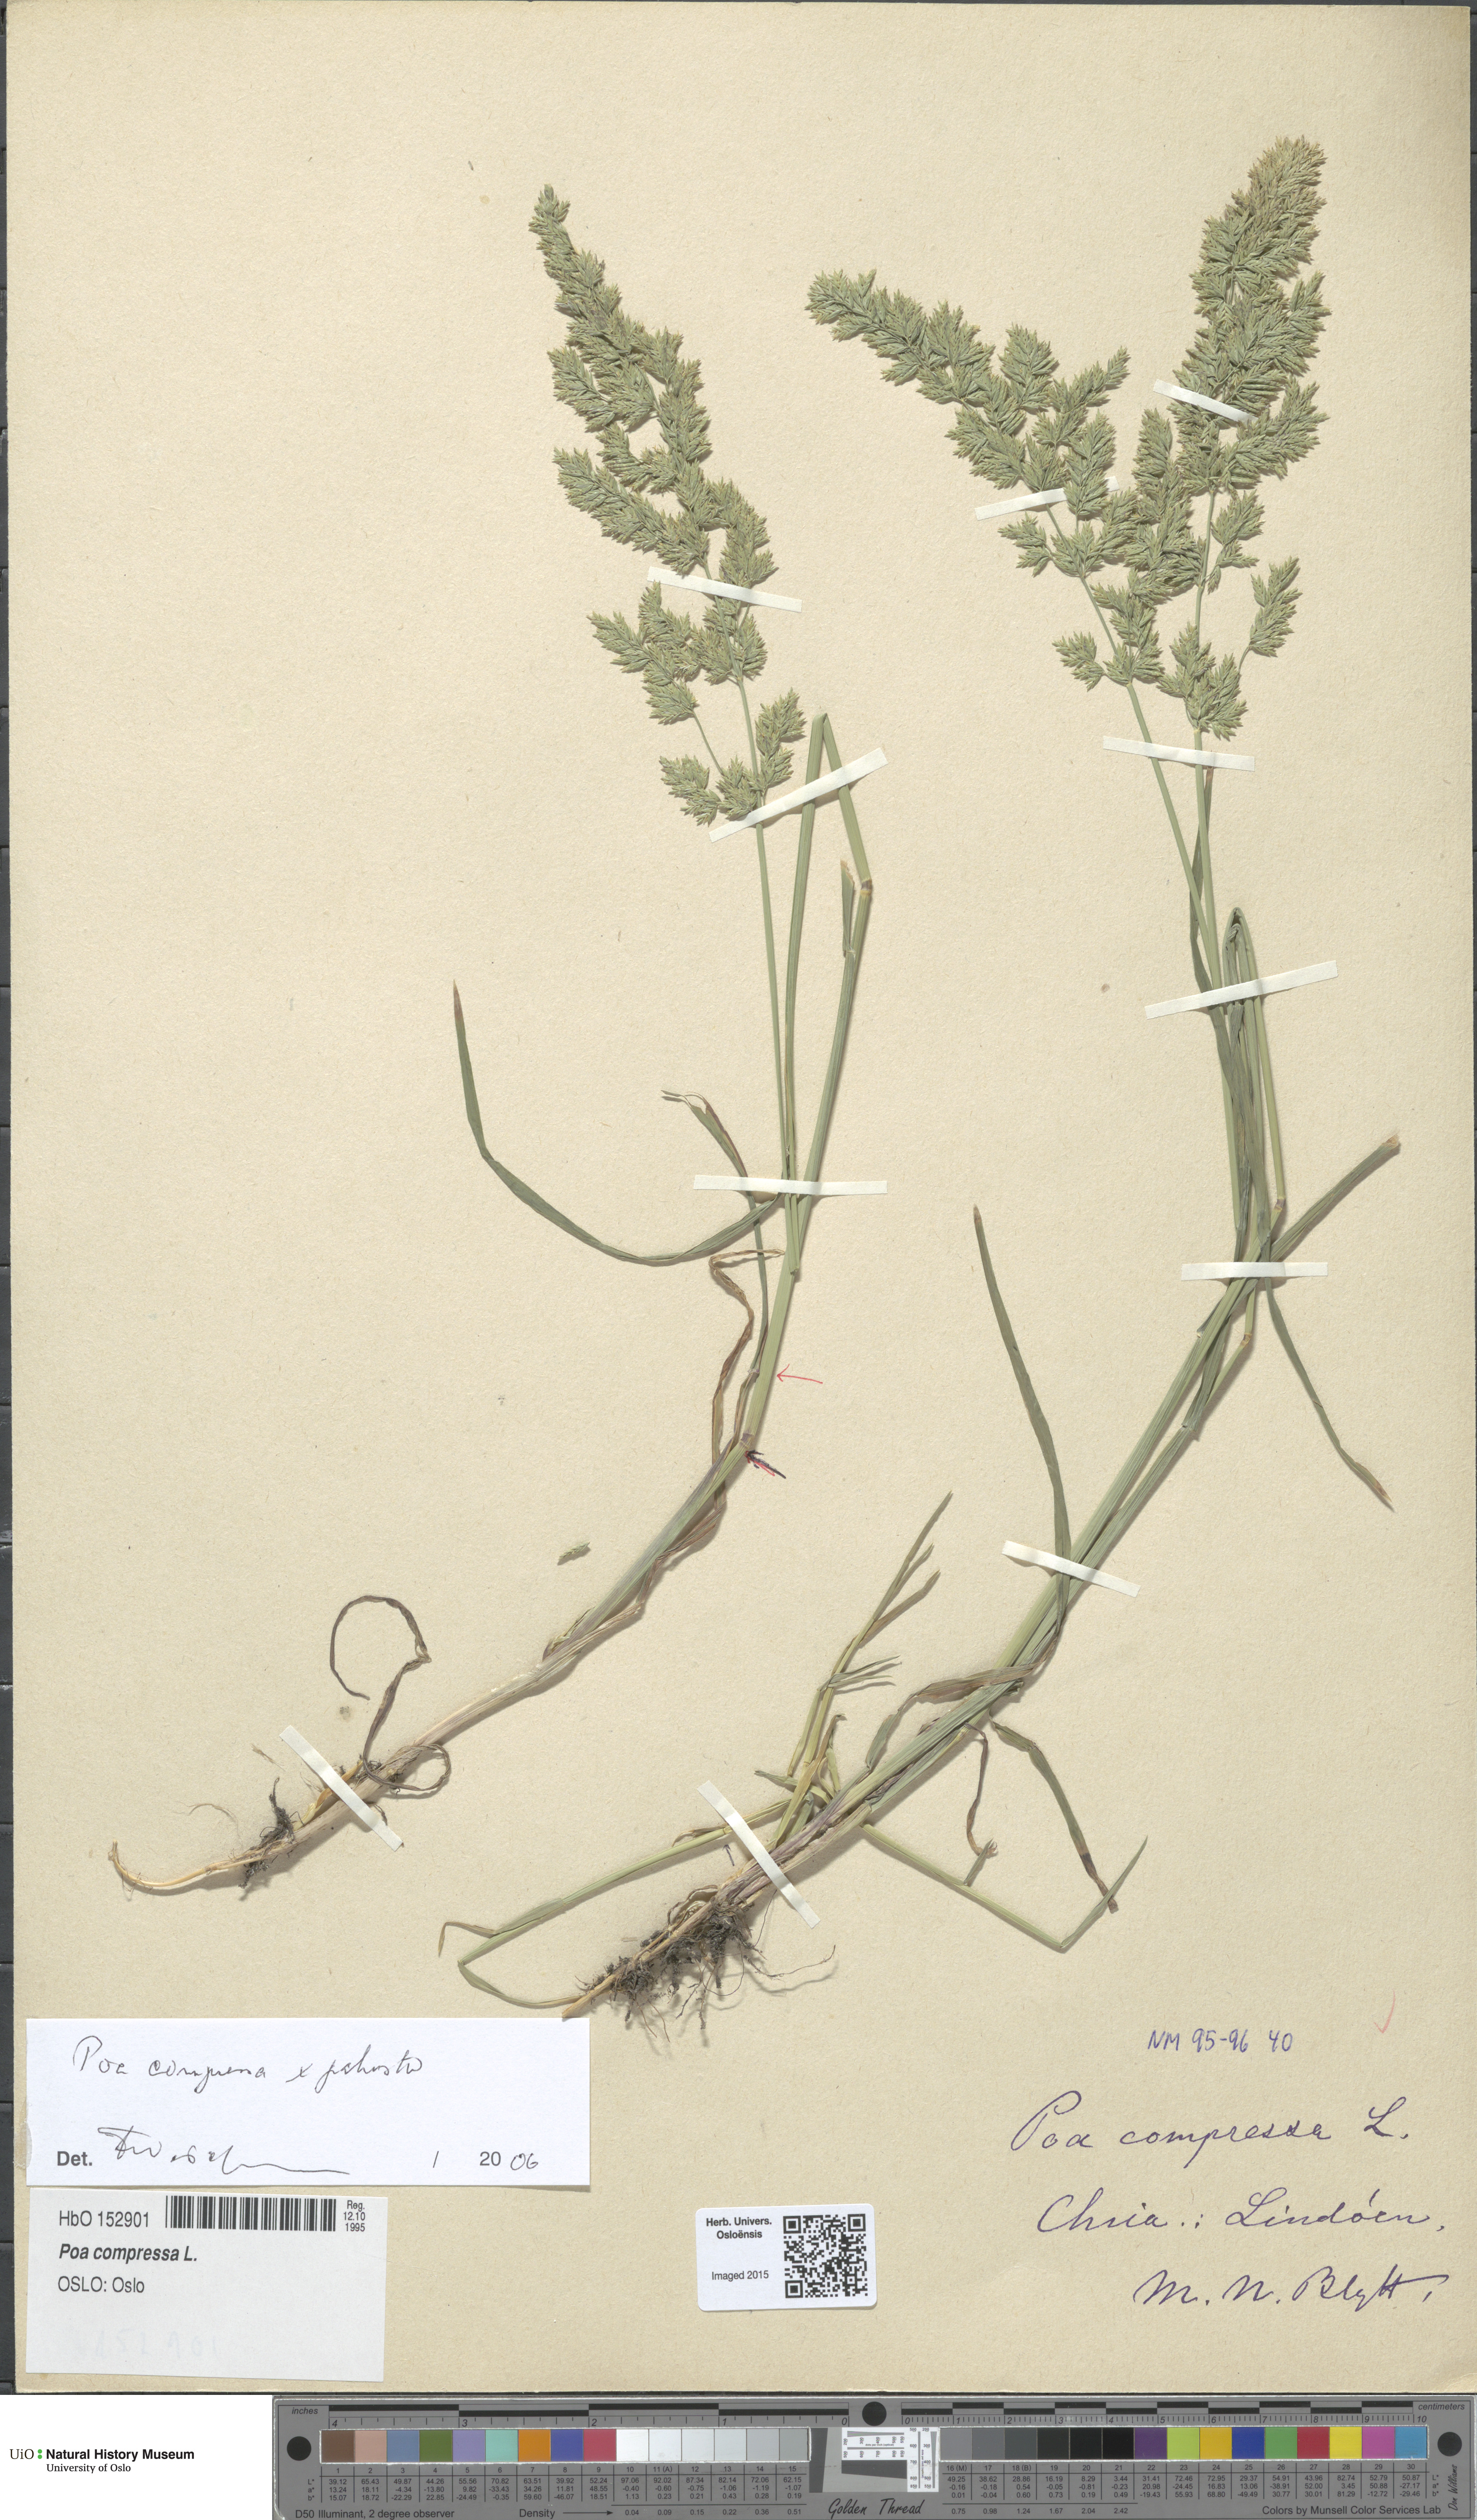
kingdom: Plantae
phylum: Tracheophyta
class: Liliopsida
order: Poales
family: Poaceae
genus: Poa
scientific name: Poa
